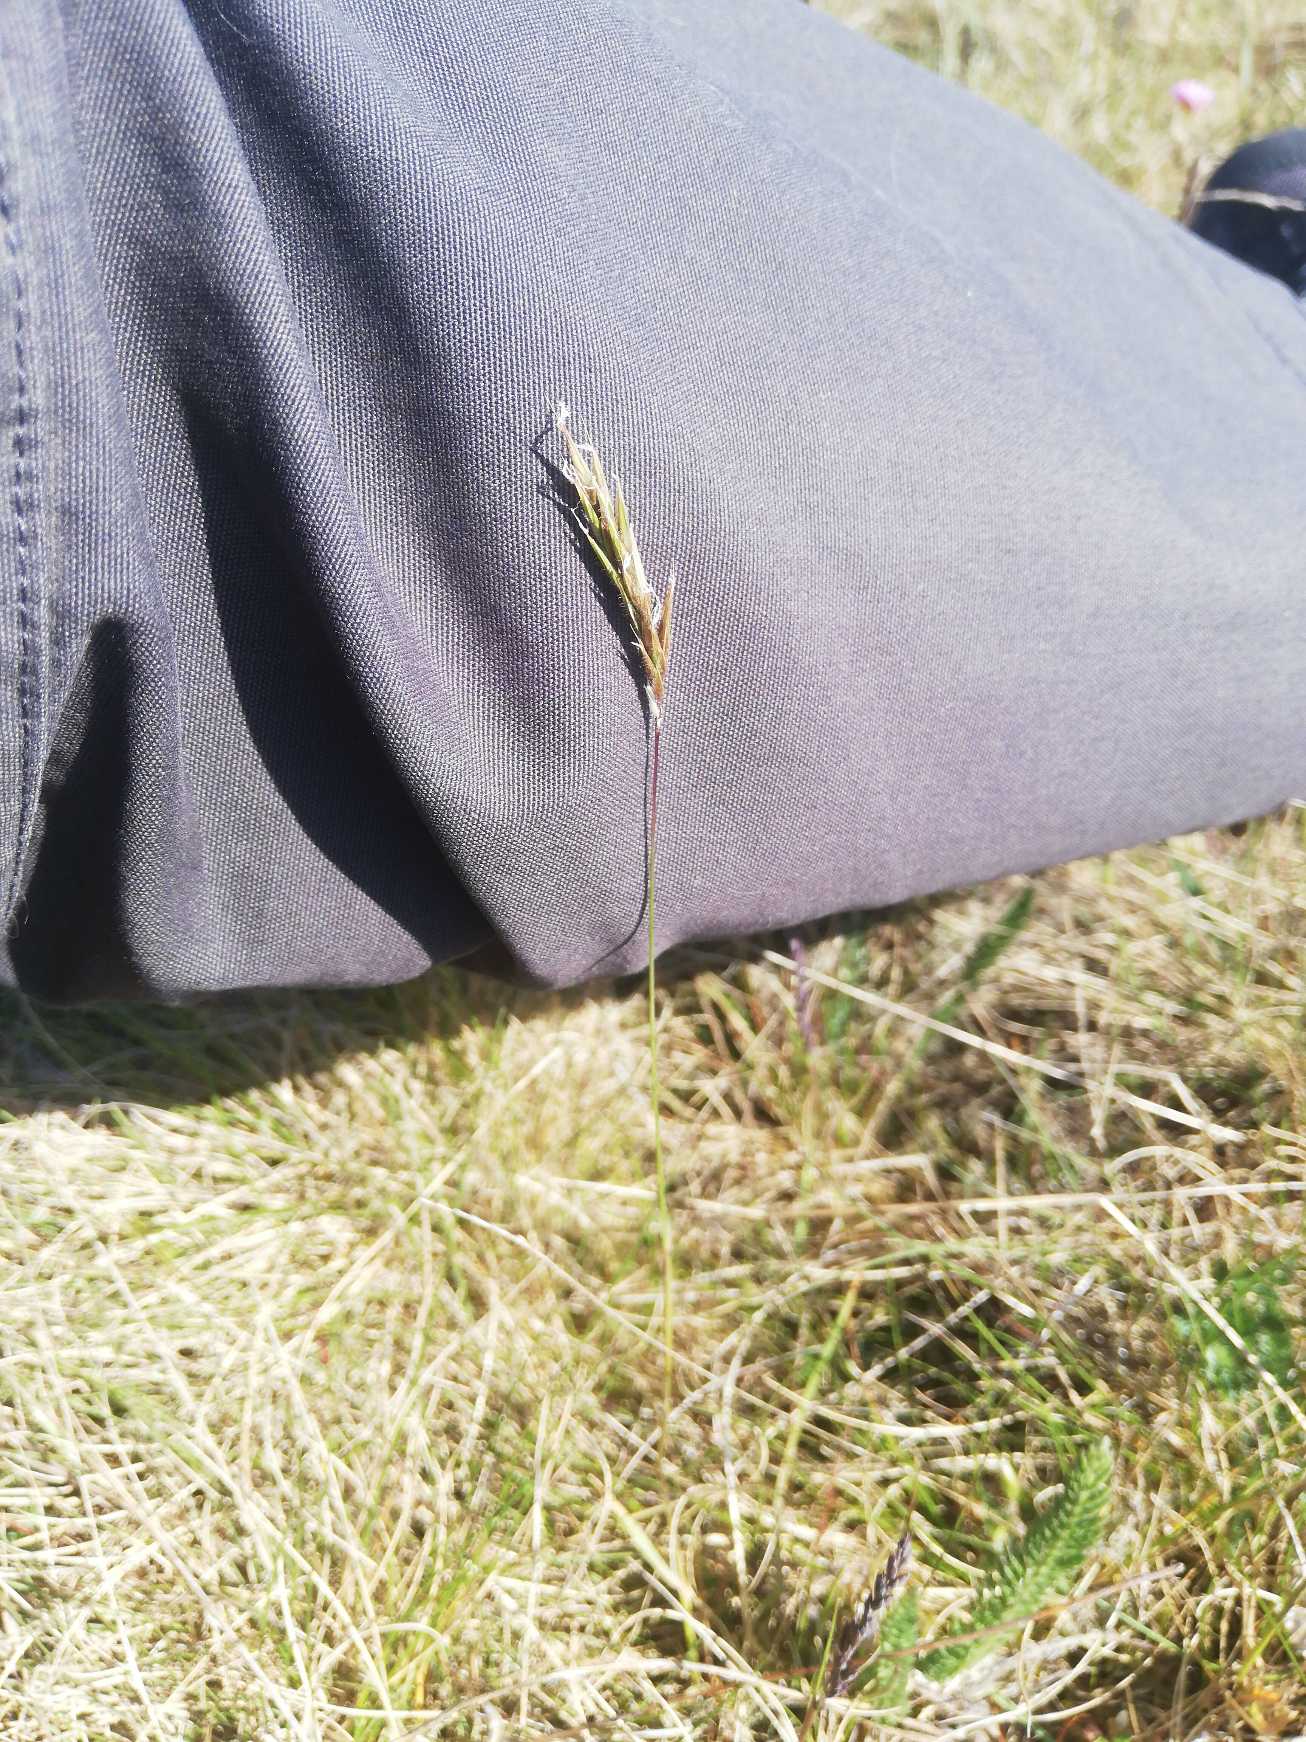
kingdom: Plantae
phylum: Tracheophyta
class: Liliopsida
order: Poales
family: Poaceae
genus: Anthoxanthum
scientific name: Anthoxanthum odoratum
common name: Vellugtende gulaks
